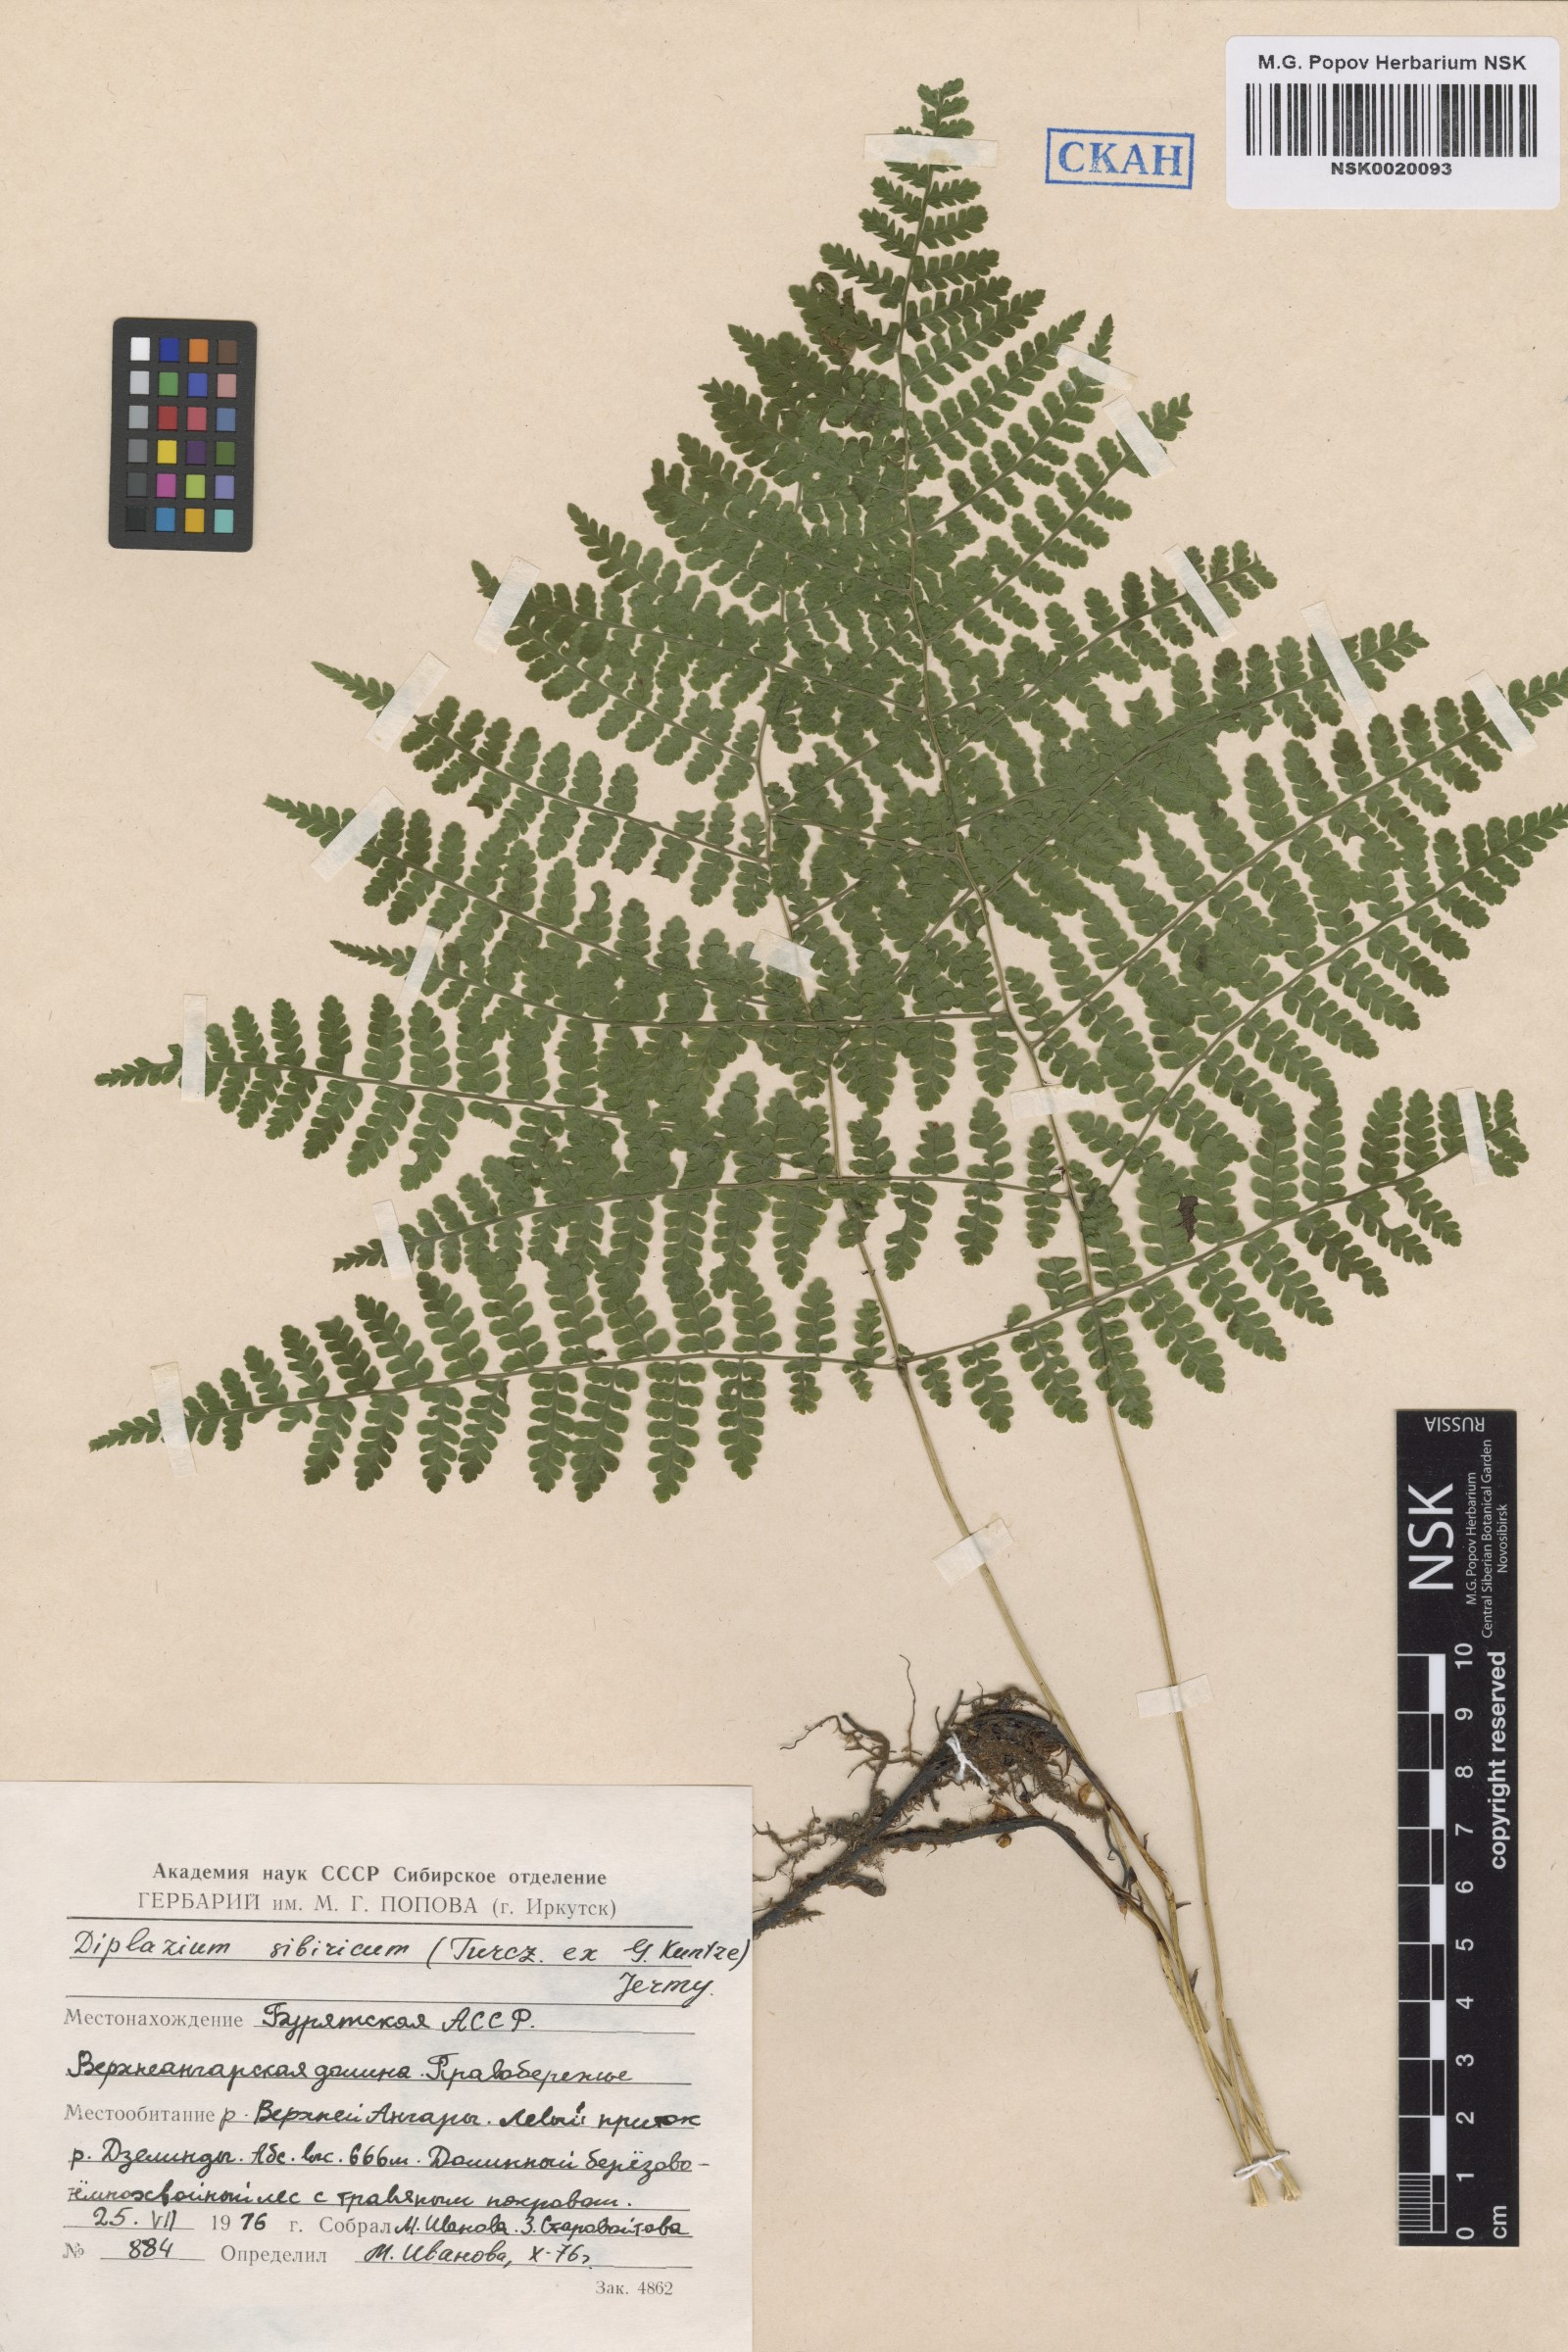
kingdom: Plantae
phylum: Tracheophyta
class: Polypodiopsida
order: Polypodiales
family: Athyriaceae
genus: Diplazium
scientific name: Diplazium sibiricum
